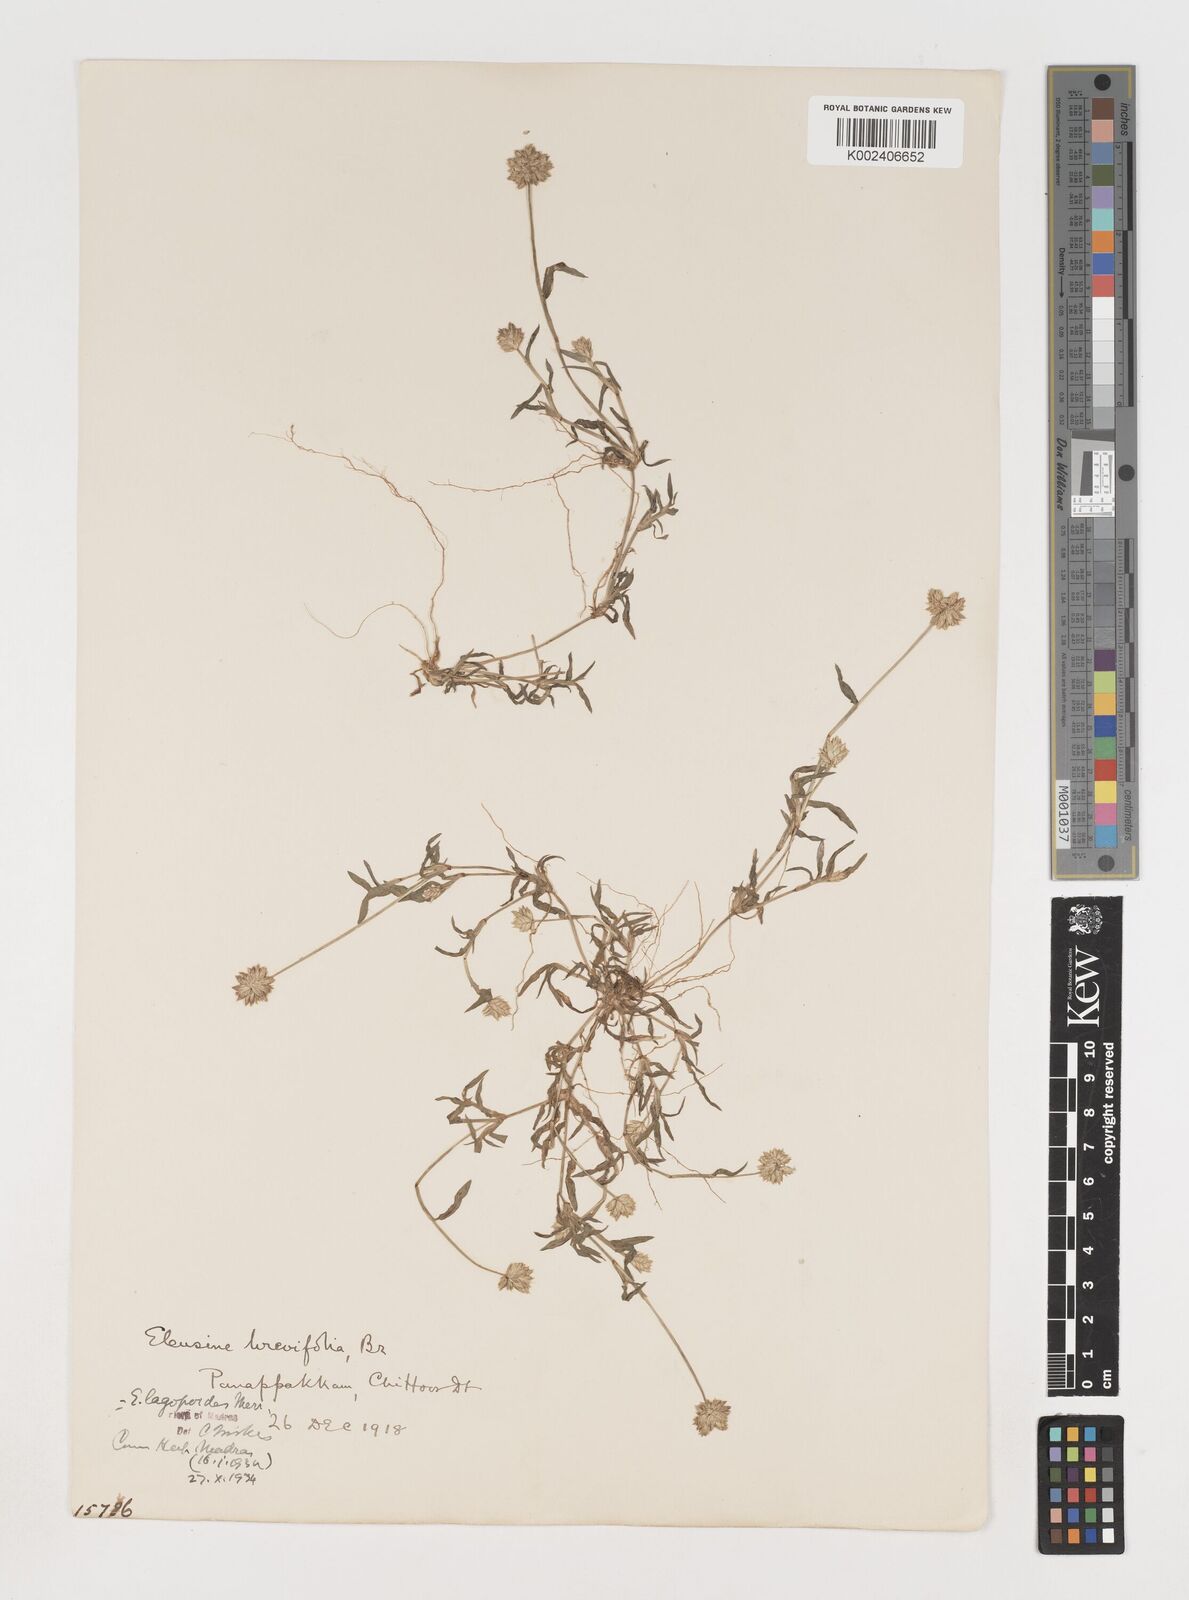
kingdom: Plantae
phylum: Tracheophyta
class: Liliopsida
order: Poales
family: Poaceae
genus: Coelachyrum
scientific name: Coelachyrum lagopoides
